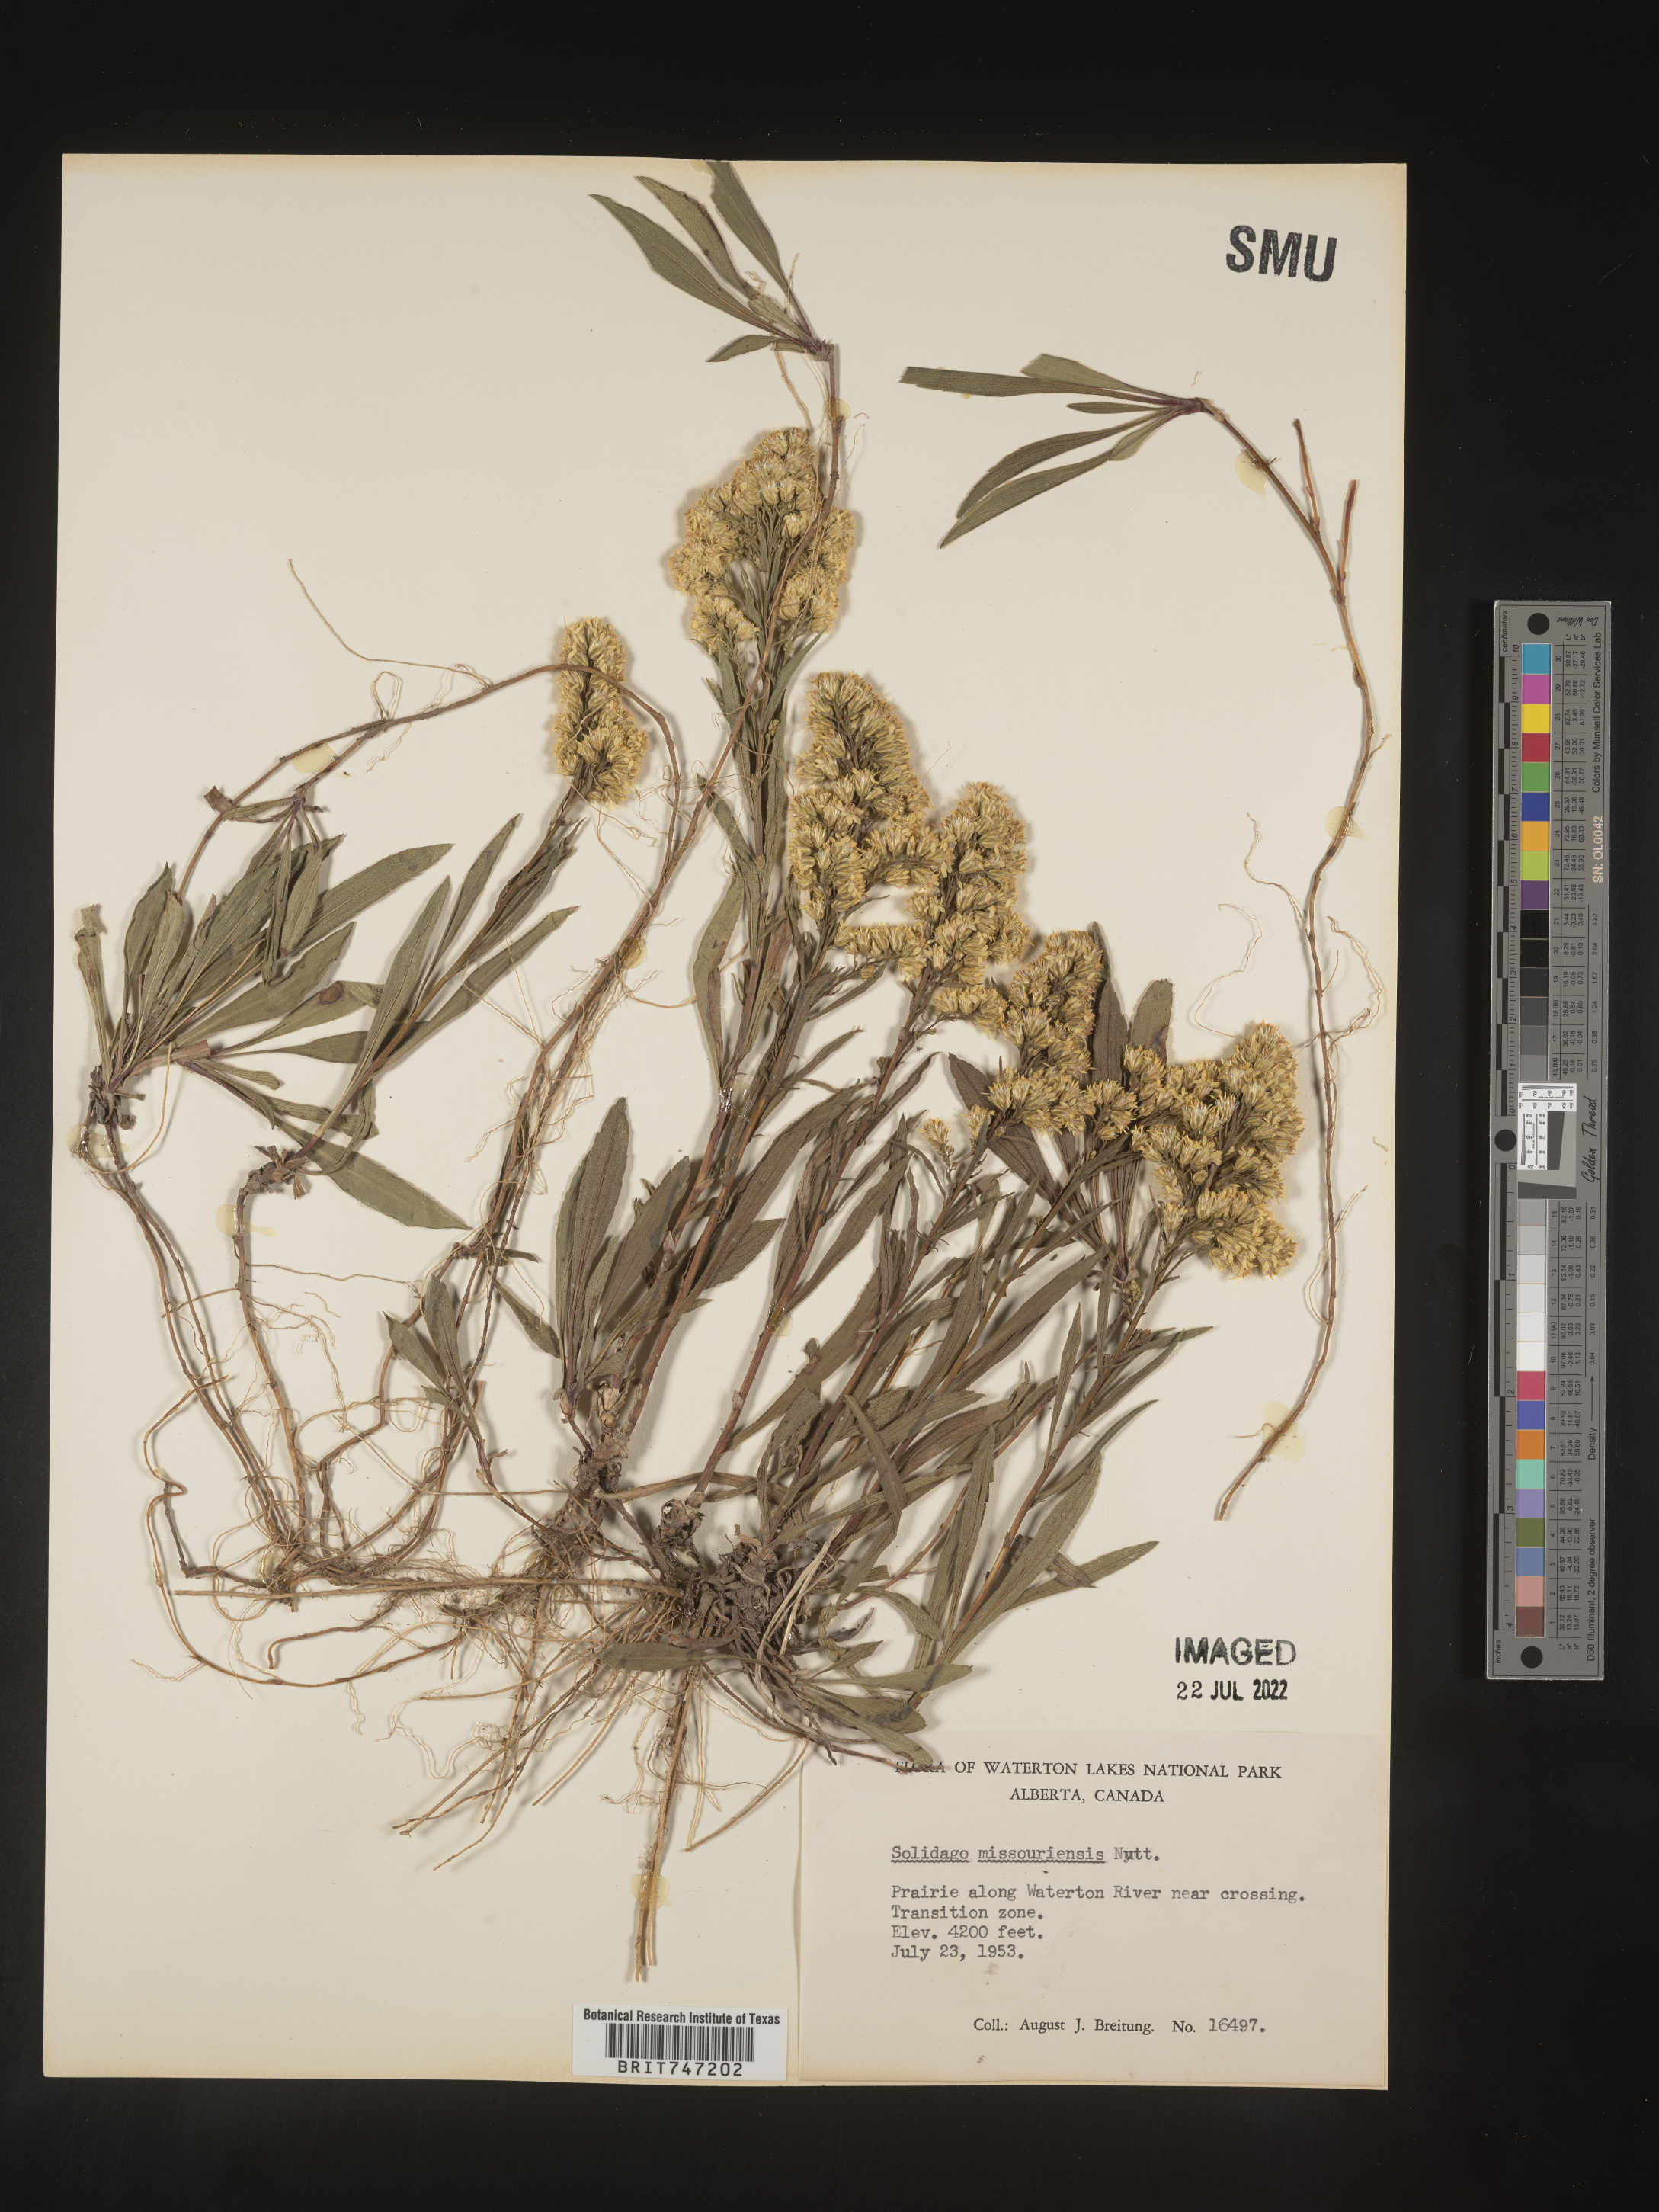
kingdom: Plantae
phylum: Tracheophyta
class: Magnoliopsida
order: Asterales
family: Asteraceae
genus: Solidago
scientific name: Solidago missouriensis
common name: Prairie goldenrod
